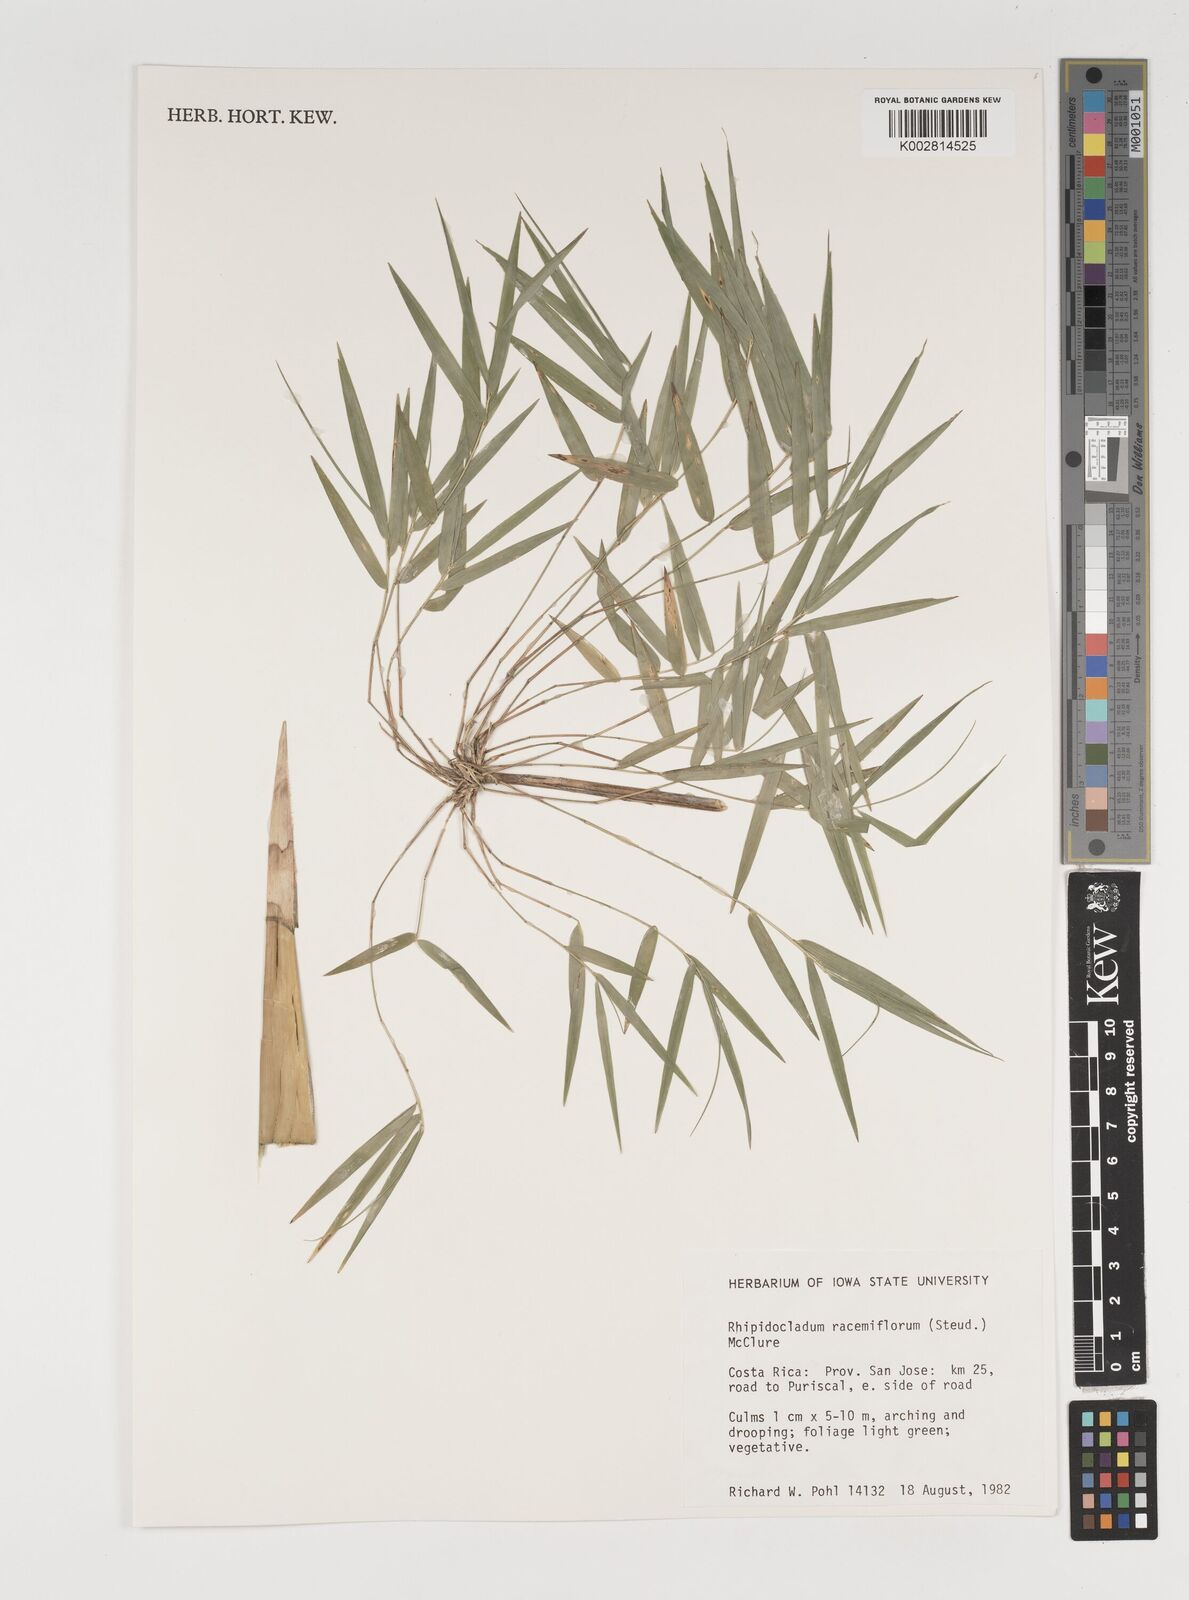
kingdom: Plantae
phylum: Tracheophyta
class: Liliopsida
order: Poales
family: Poaceae
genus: Rhipidocladum
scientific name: Rhipidocladum racemiflorum
